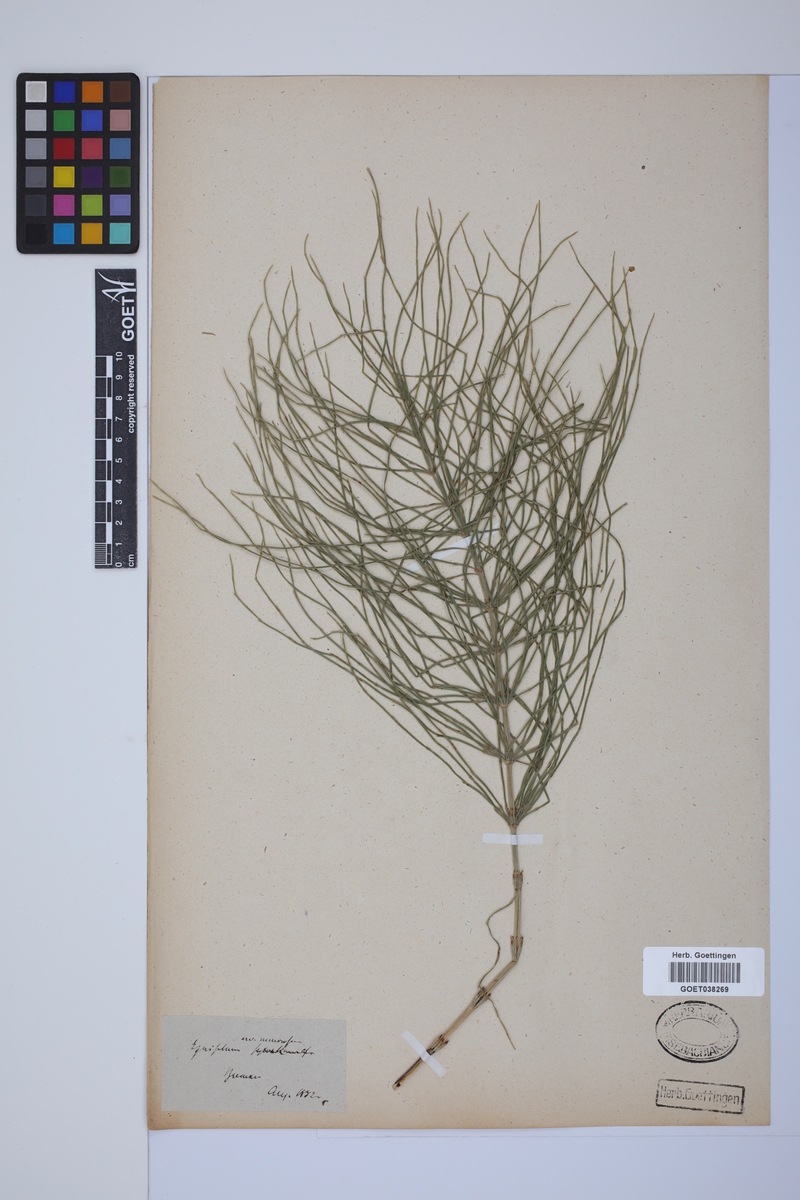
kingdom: Plantae
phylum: Tracheophyta
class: Polypodiopsida
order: Equisetales
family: Equisetaceae
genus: Equisetum
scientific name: Equisetum arvense
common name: Field horsetail
